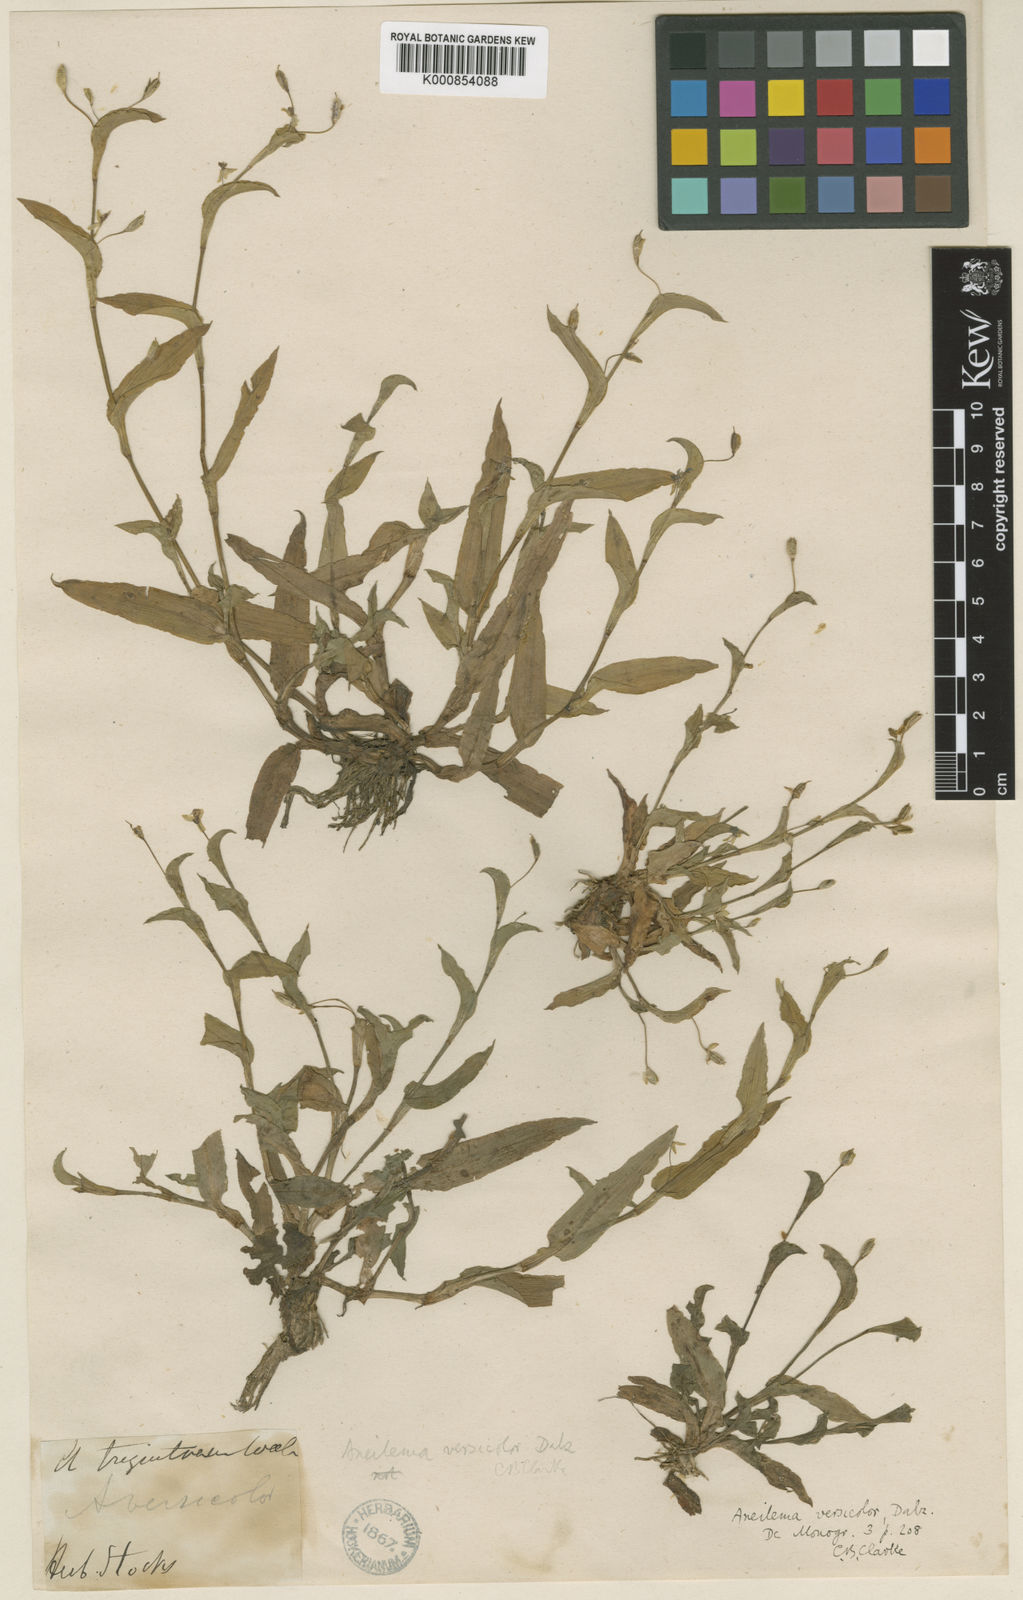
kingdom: Plantae
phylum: Tracheophyta
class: Liliopsida
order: Commelinales
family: Commelinaceae
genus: Murdannia
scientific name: Murdannia
